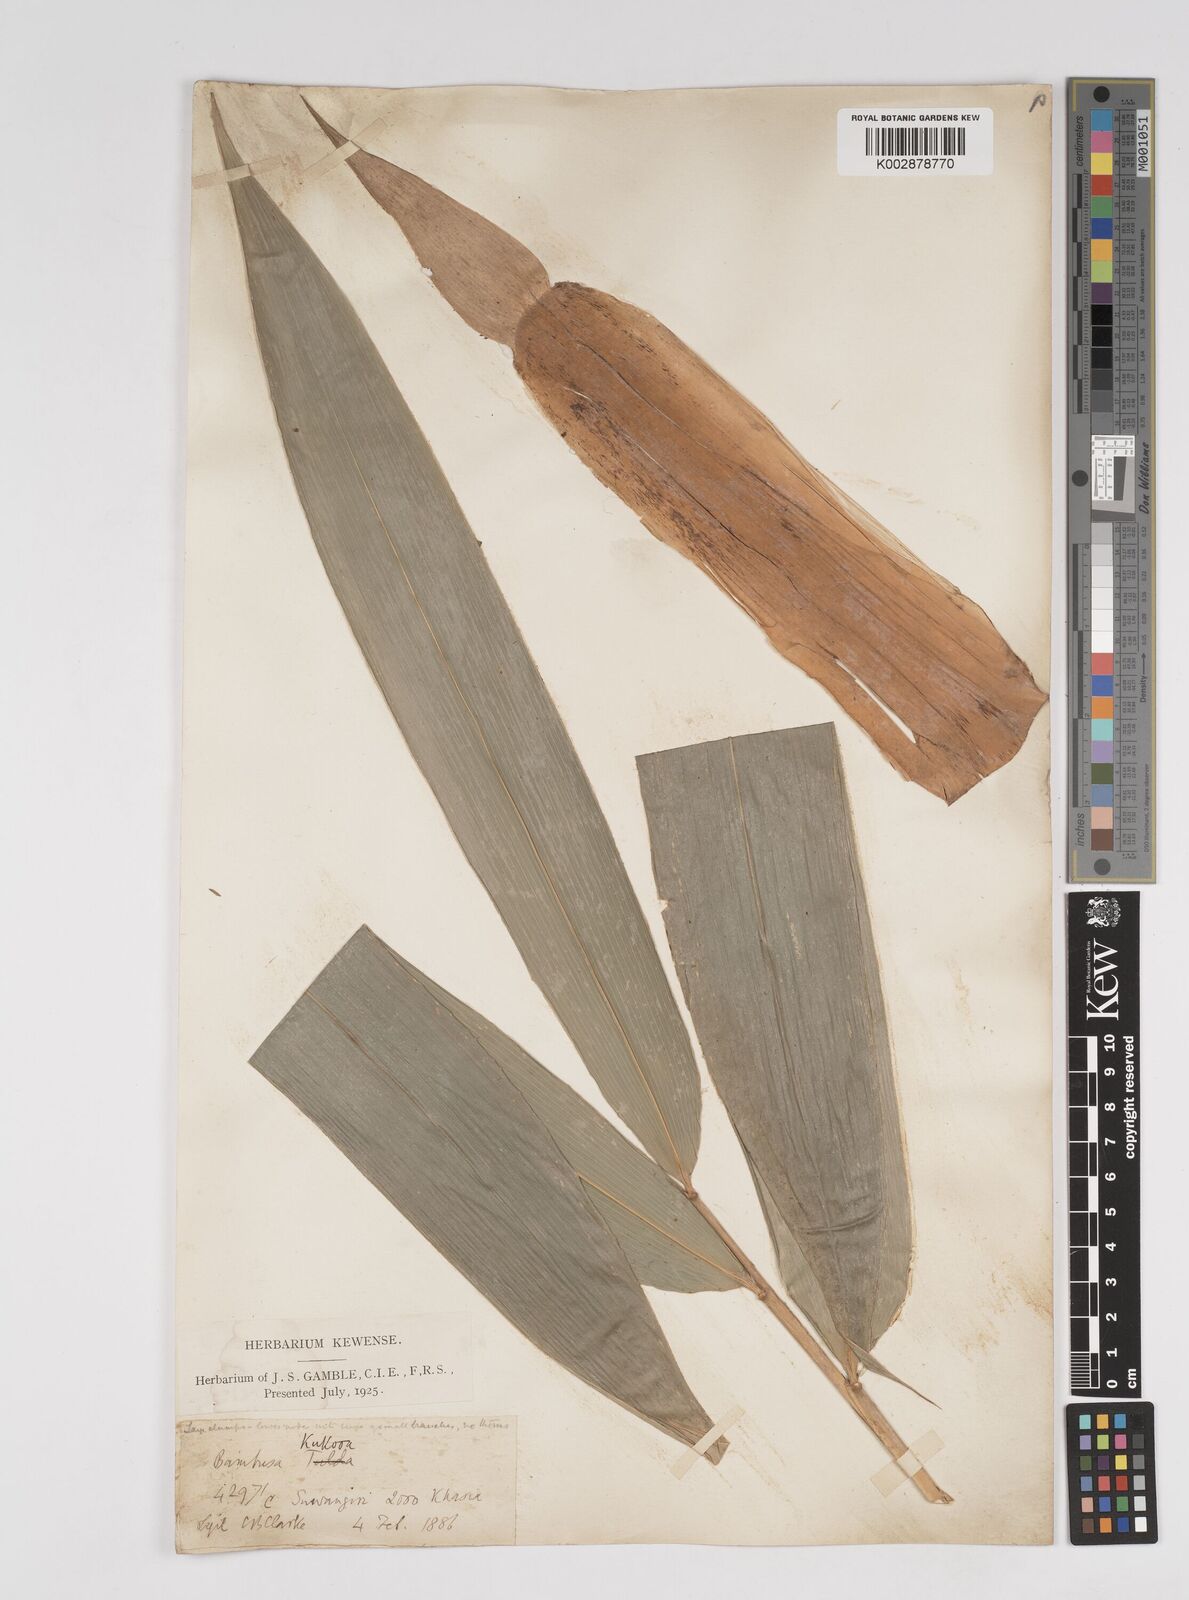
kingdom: Plantae
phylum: Tracheophyta
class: Liliopsida
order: Poales
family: Poaceae
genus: Dendrocalamus
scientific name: Dendrocalamus hamiltonii
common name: Tama bamboo
